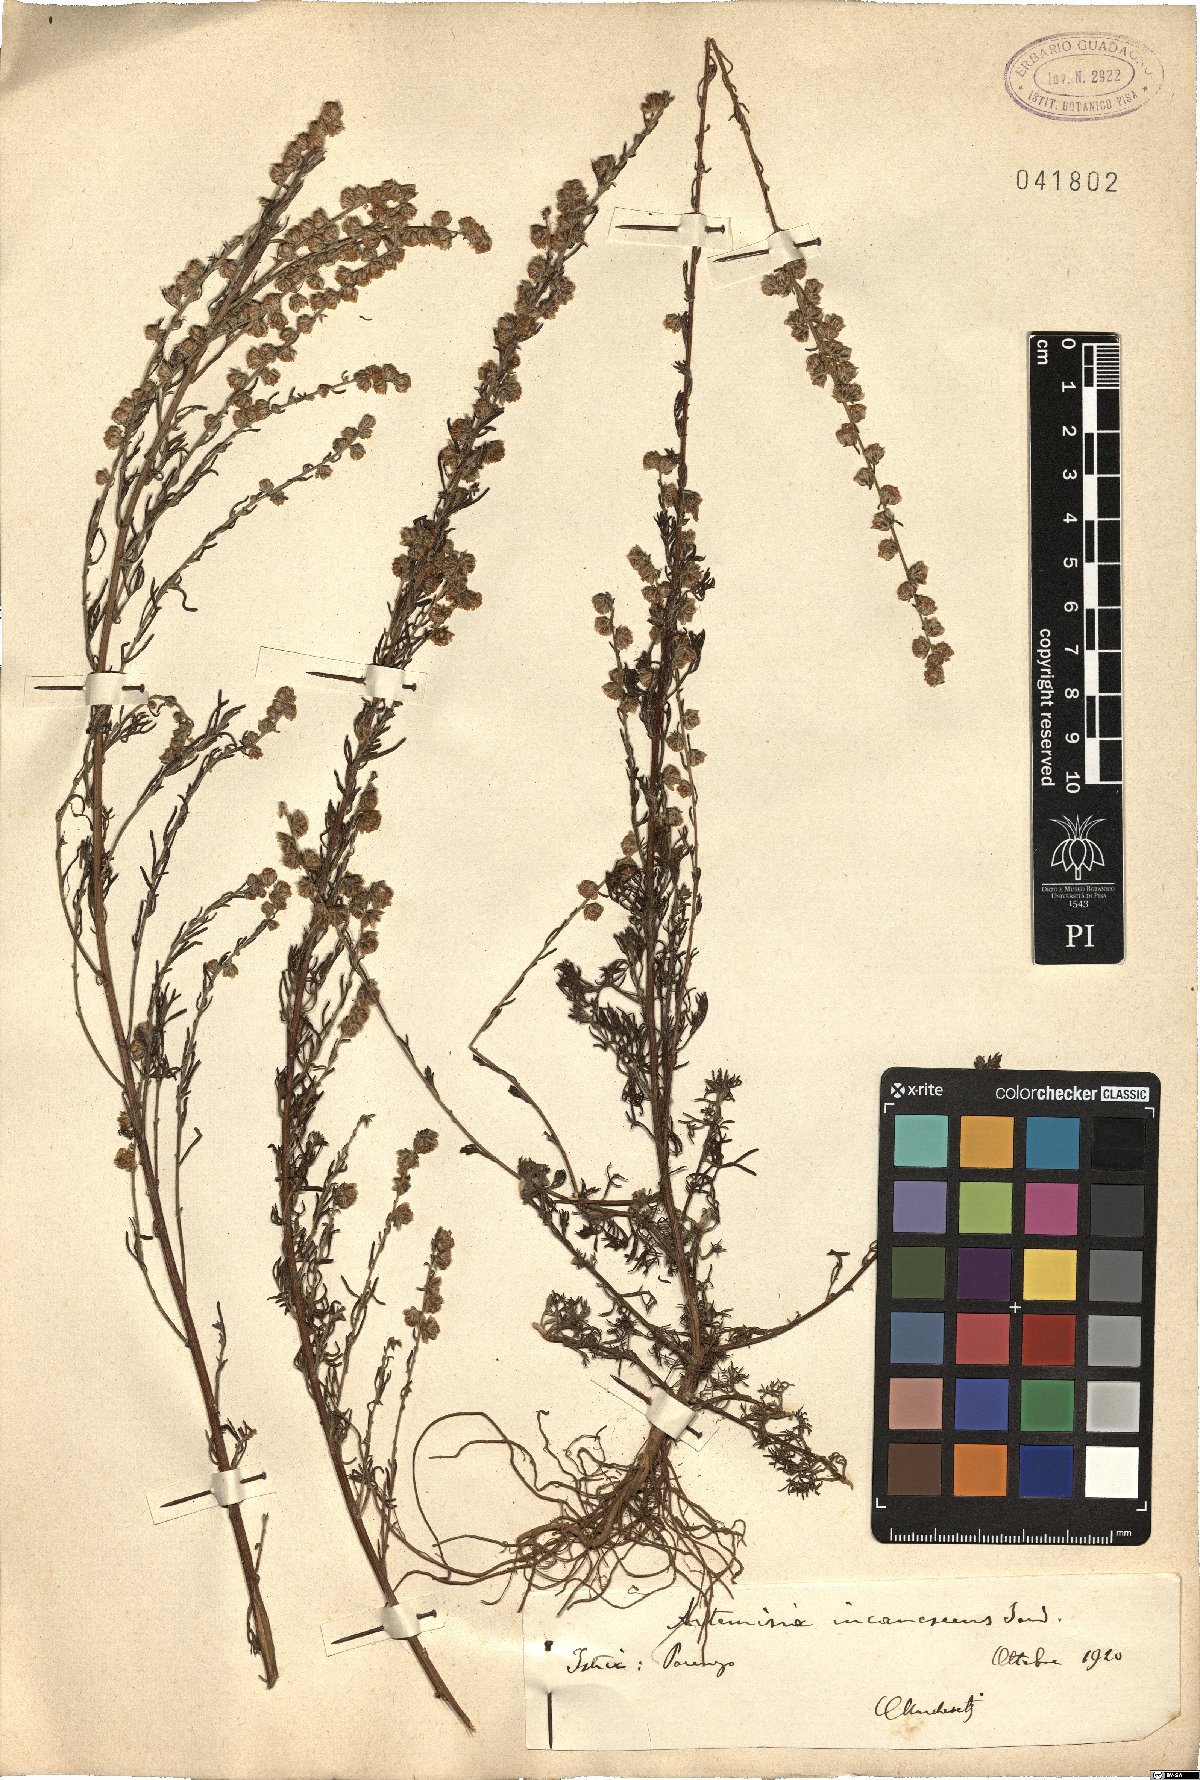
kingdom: Plantae
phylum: Tracheophyta
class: Magnoliopsida
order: Asterales
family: Asteraceae
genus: Artemisia
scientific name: Artemisia alba
